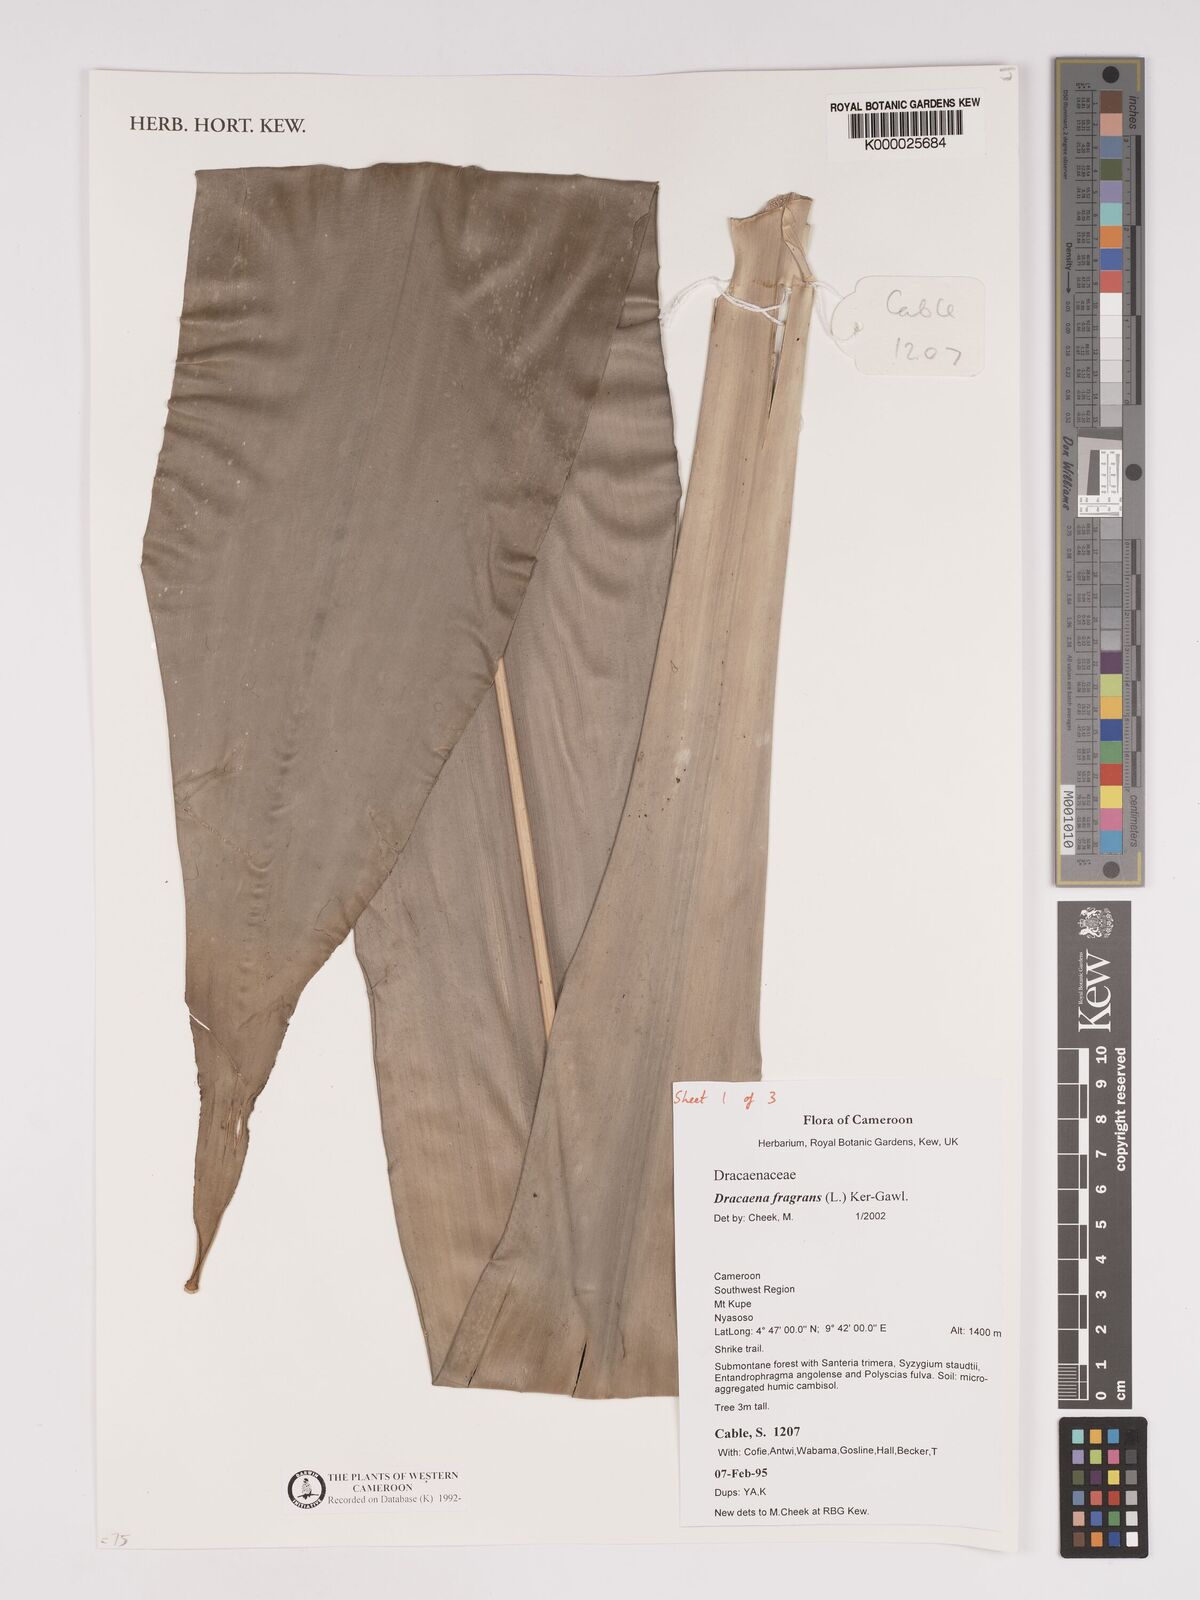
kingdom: Plantae
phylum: Tracheophyta
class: Liliopsida
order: Asparagales
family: Asparagaceae
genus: Dracaena
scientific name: Dracaena fragrans
